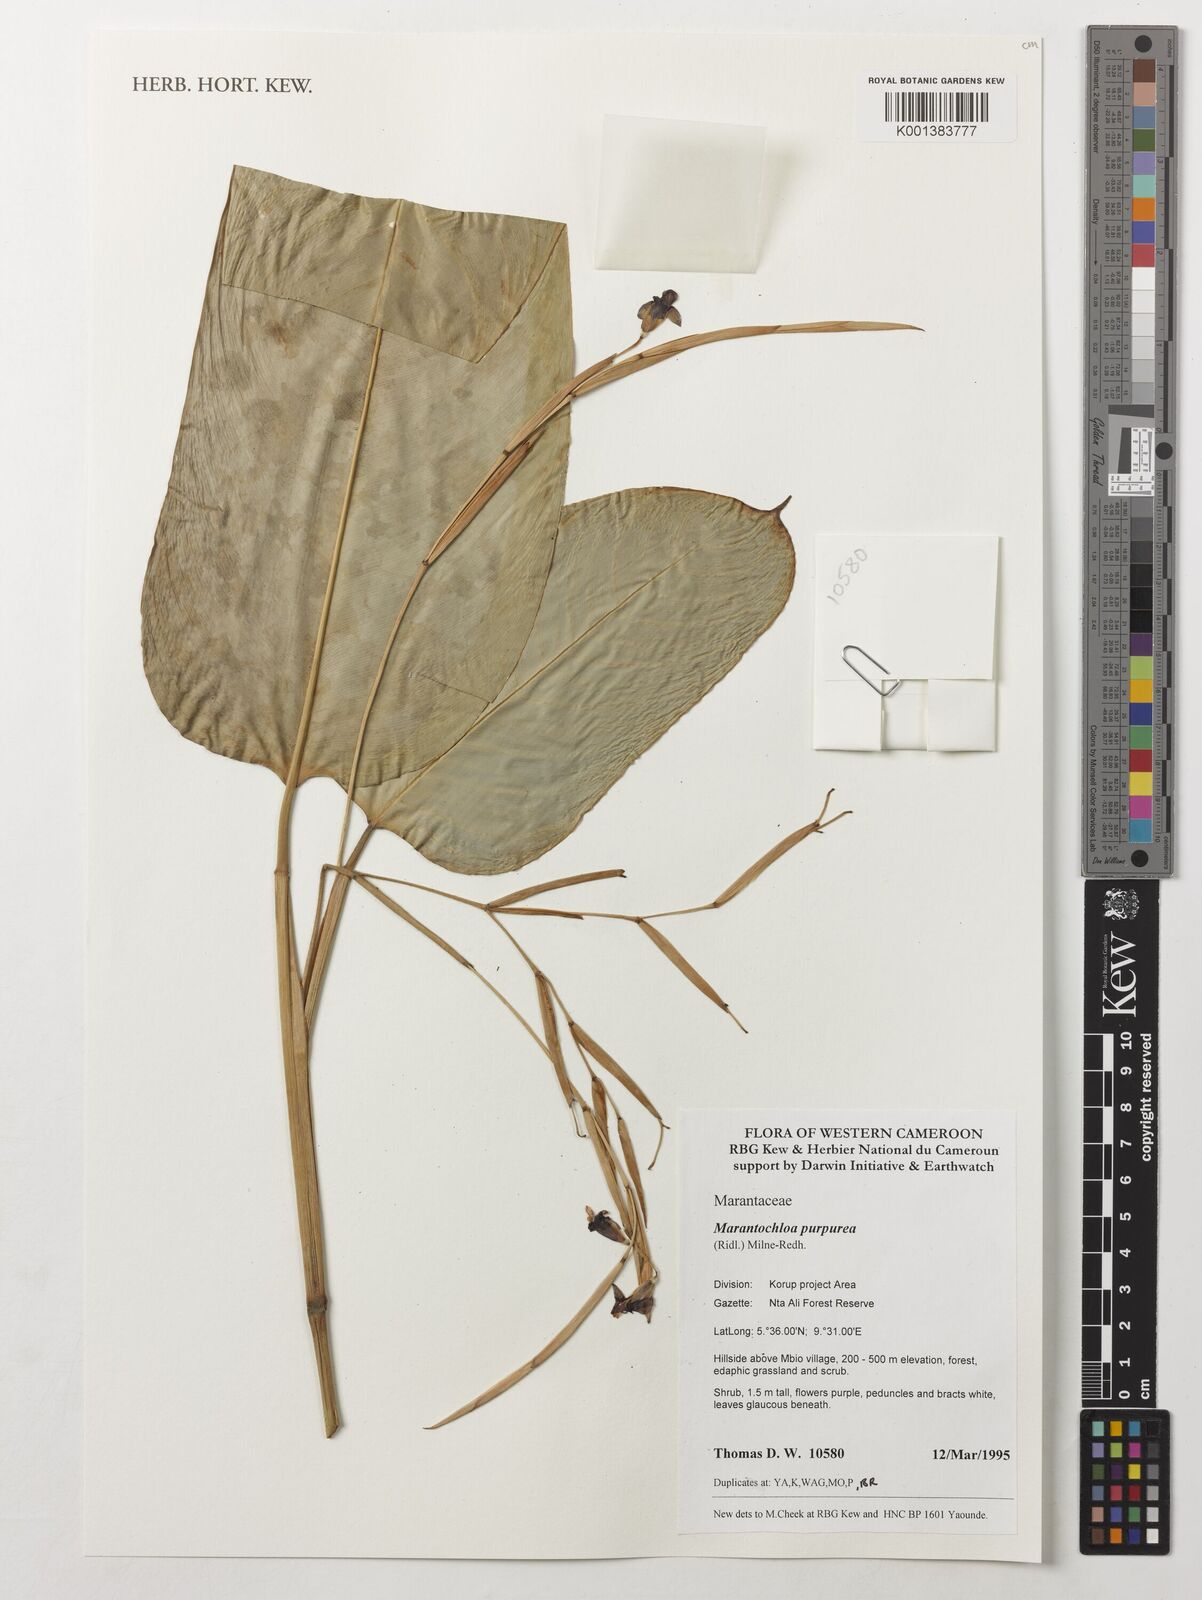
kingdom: Plantae
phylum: Tracheophyta
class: Liliopsida
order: Zingiberales
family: Marantaceae
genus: Marantochloa
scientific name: Marantochloa purpurea
